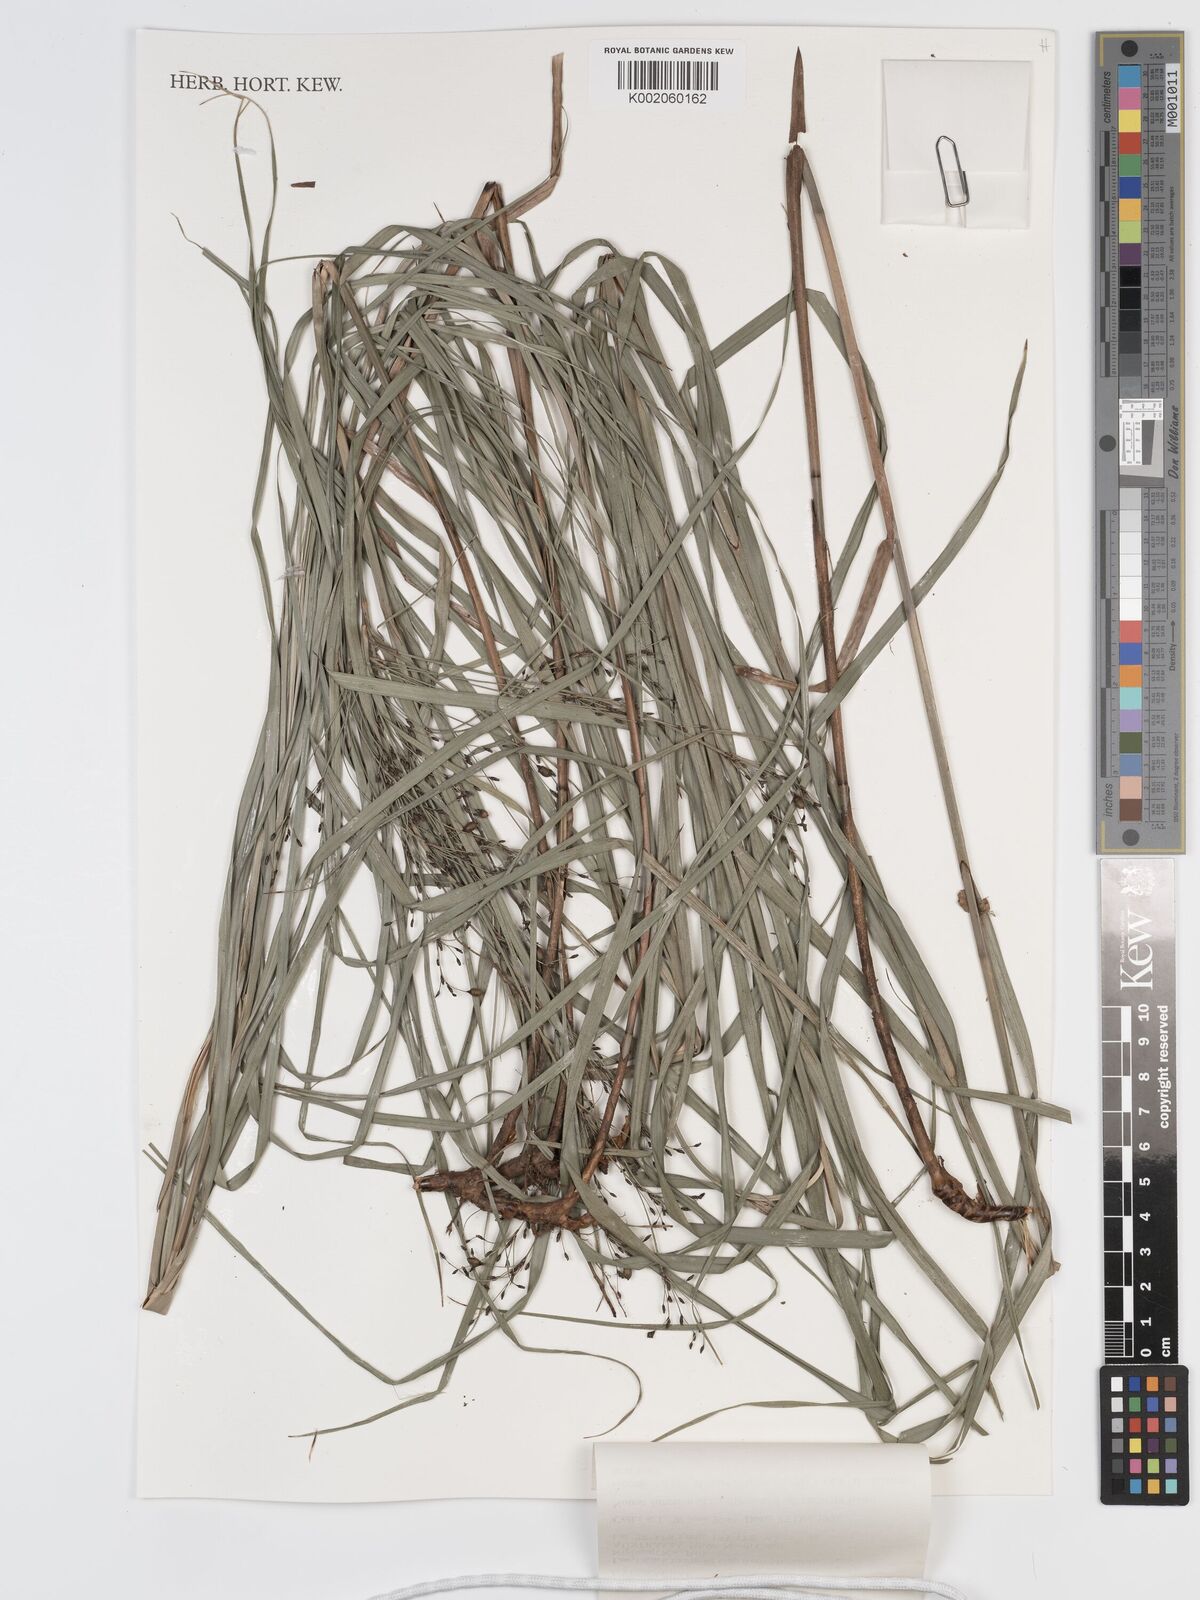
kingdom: Plantae
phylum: Tracheophyta
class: Liliopsida
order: Poales
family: Cyperaceae
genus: Exocarya
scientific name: Exocarya sclerioides
